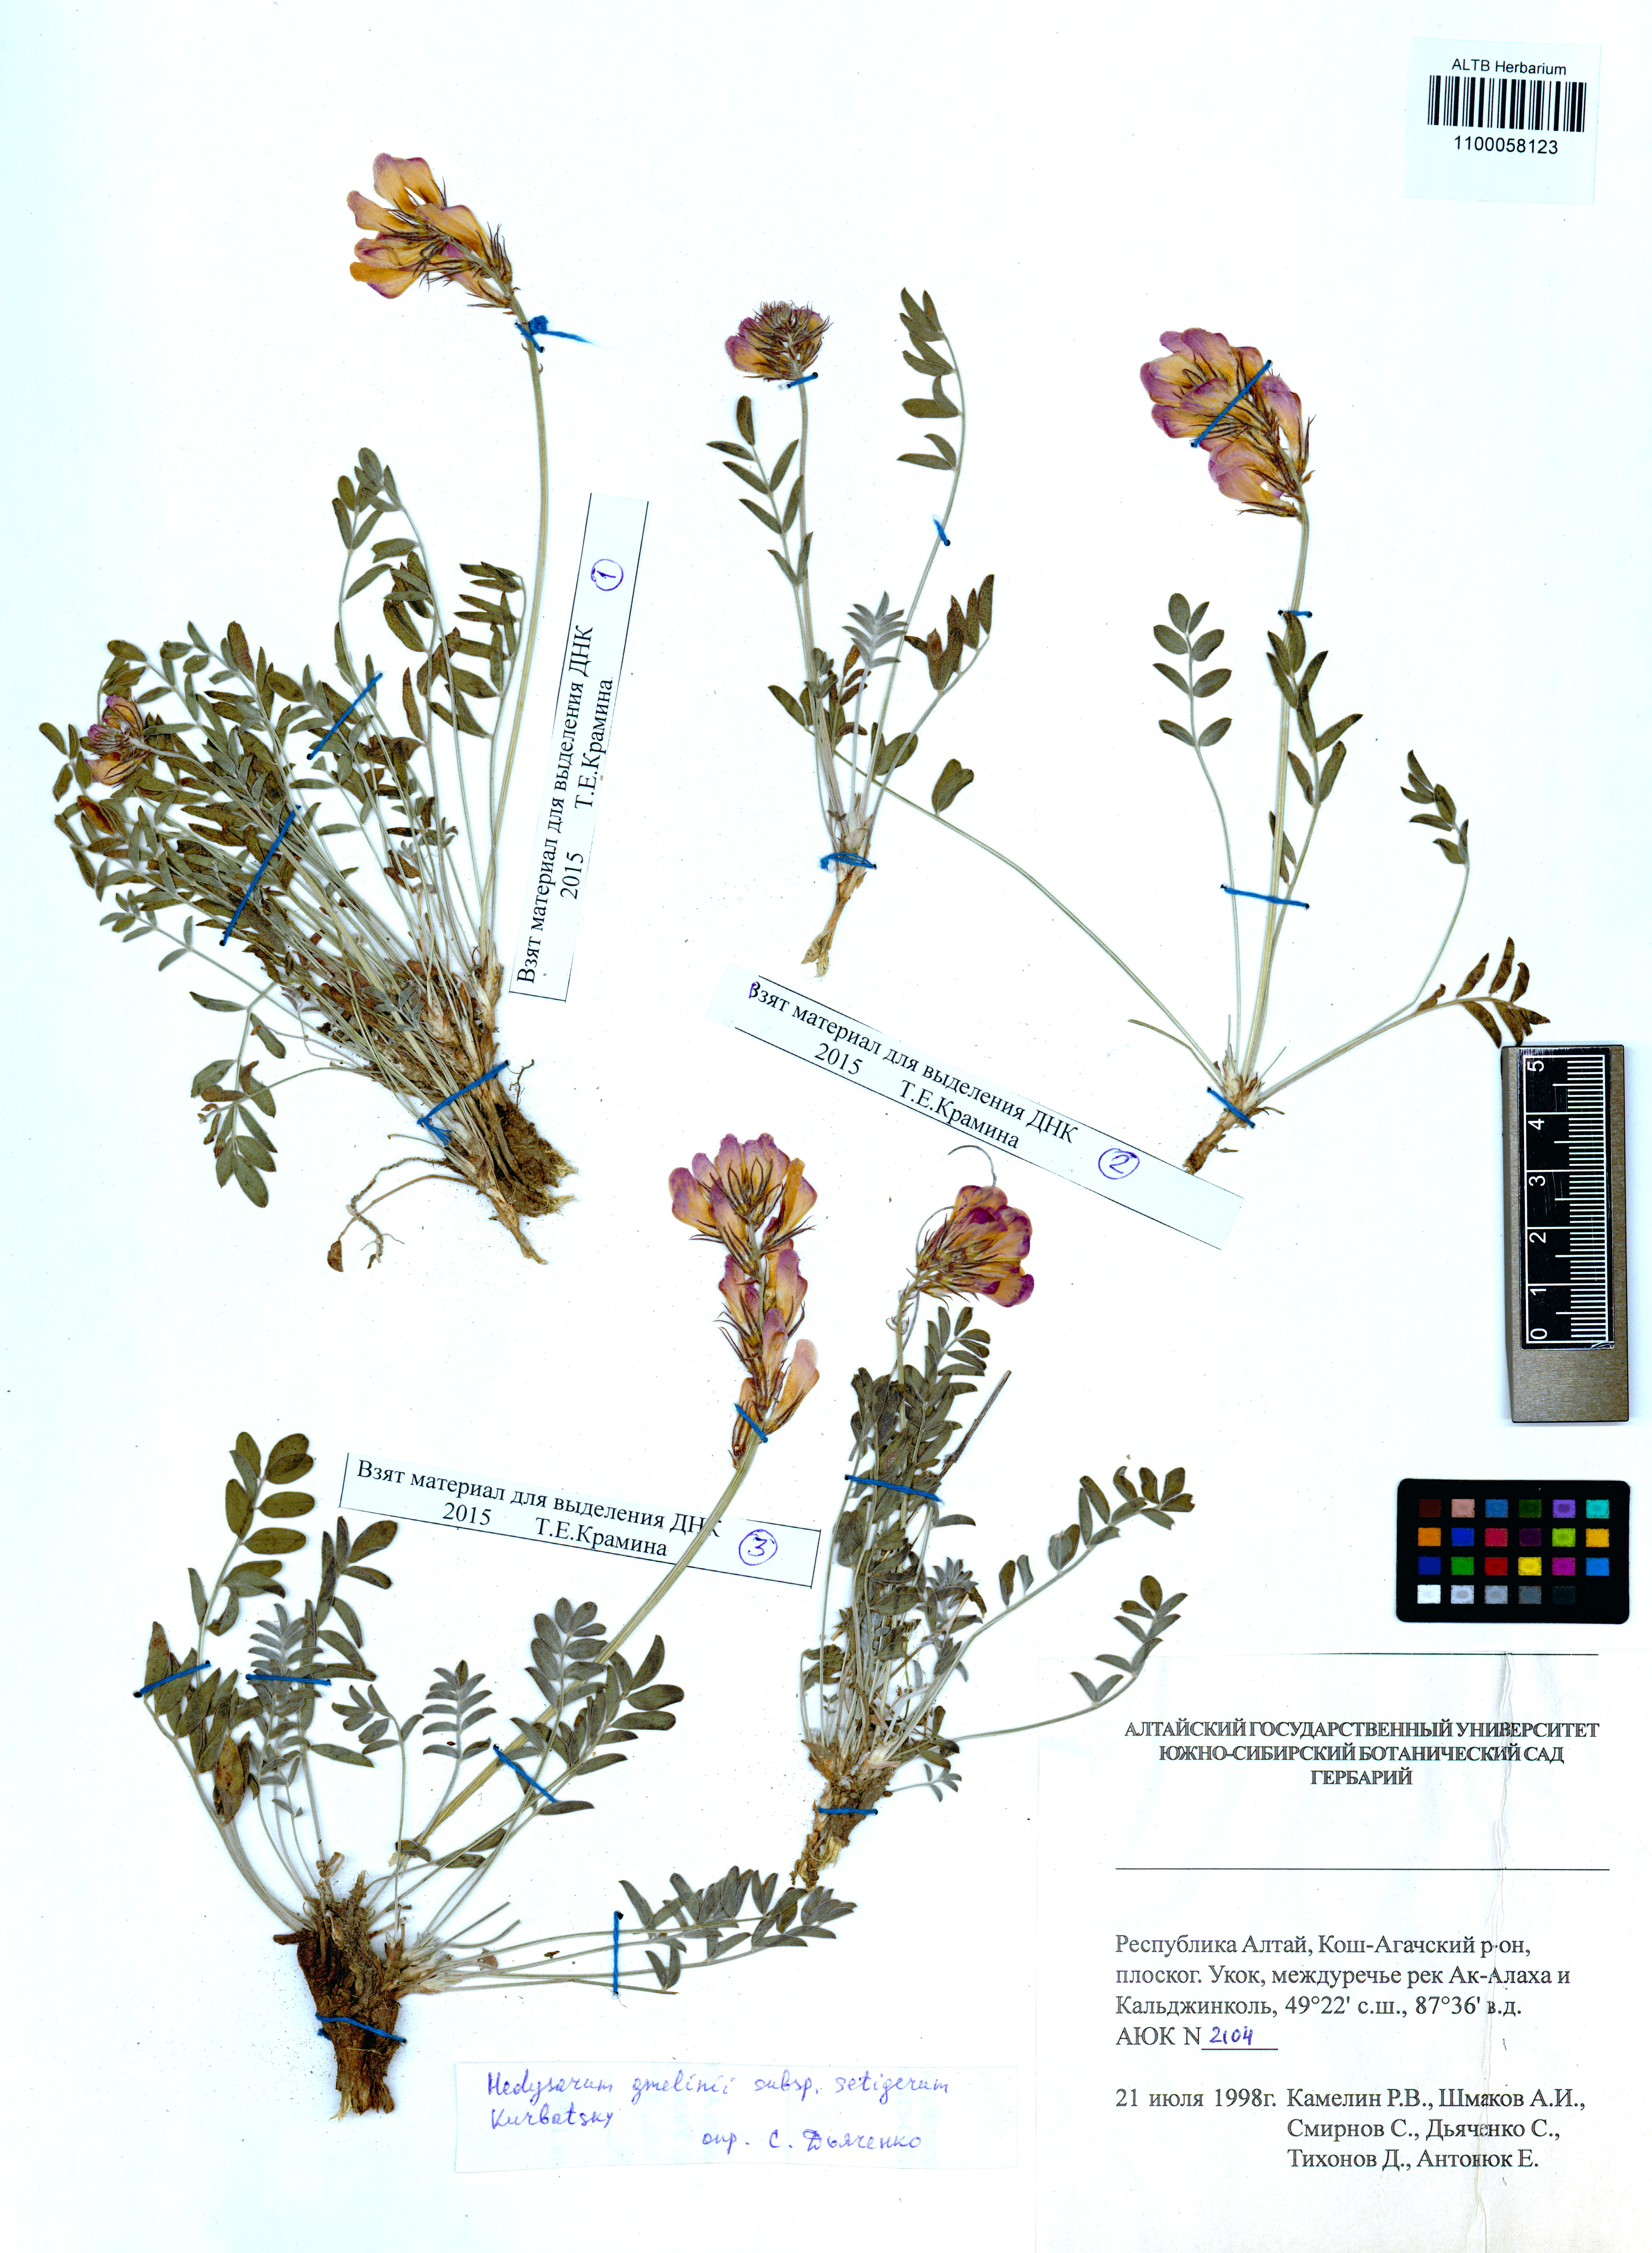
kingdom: Plantae
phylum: Tracheophyta
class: Magnoliopsida
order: Fabales
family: Fabaceae
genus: Hedysarum
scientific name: Hedysarum setigerum
